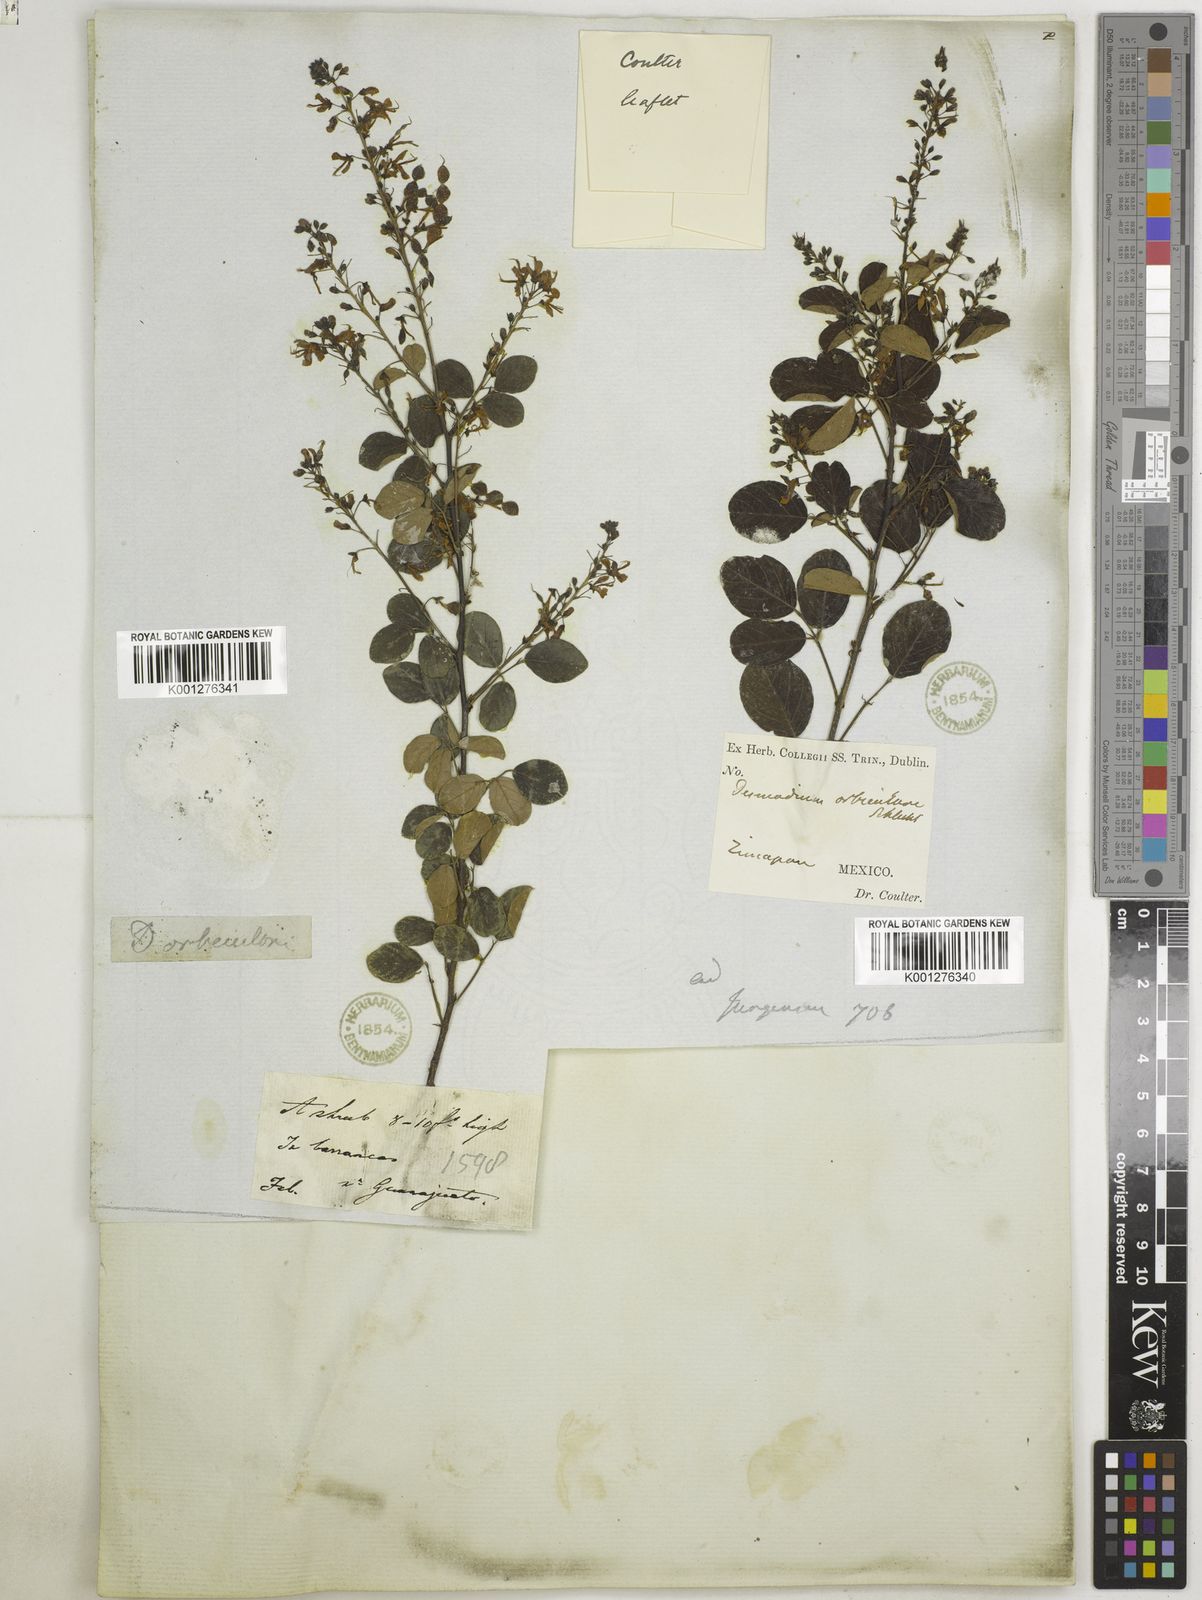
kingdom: Plantae
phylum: Tracheophyta
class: Magnoliopsida
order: Fabales
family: Fabaceae
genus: Desmodium
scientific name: Desmodium
